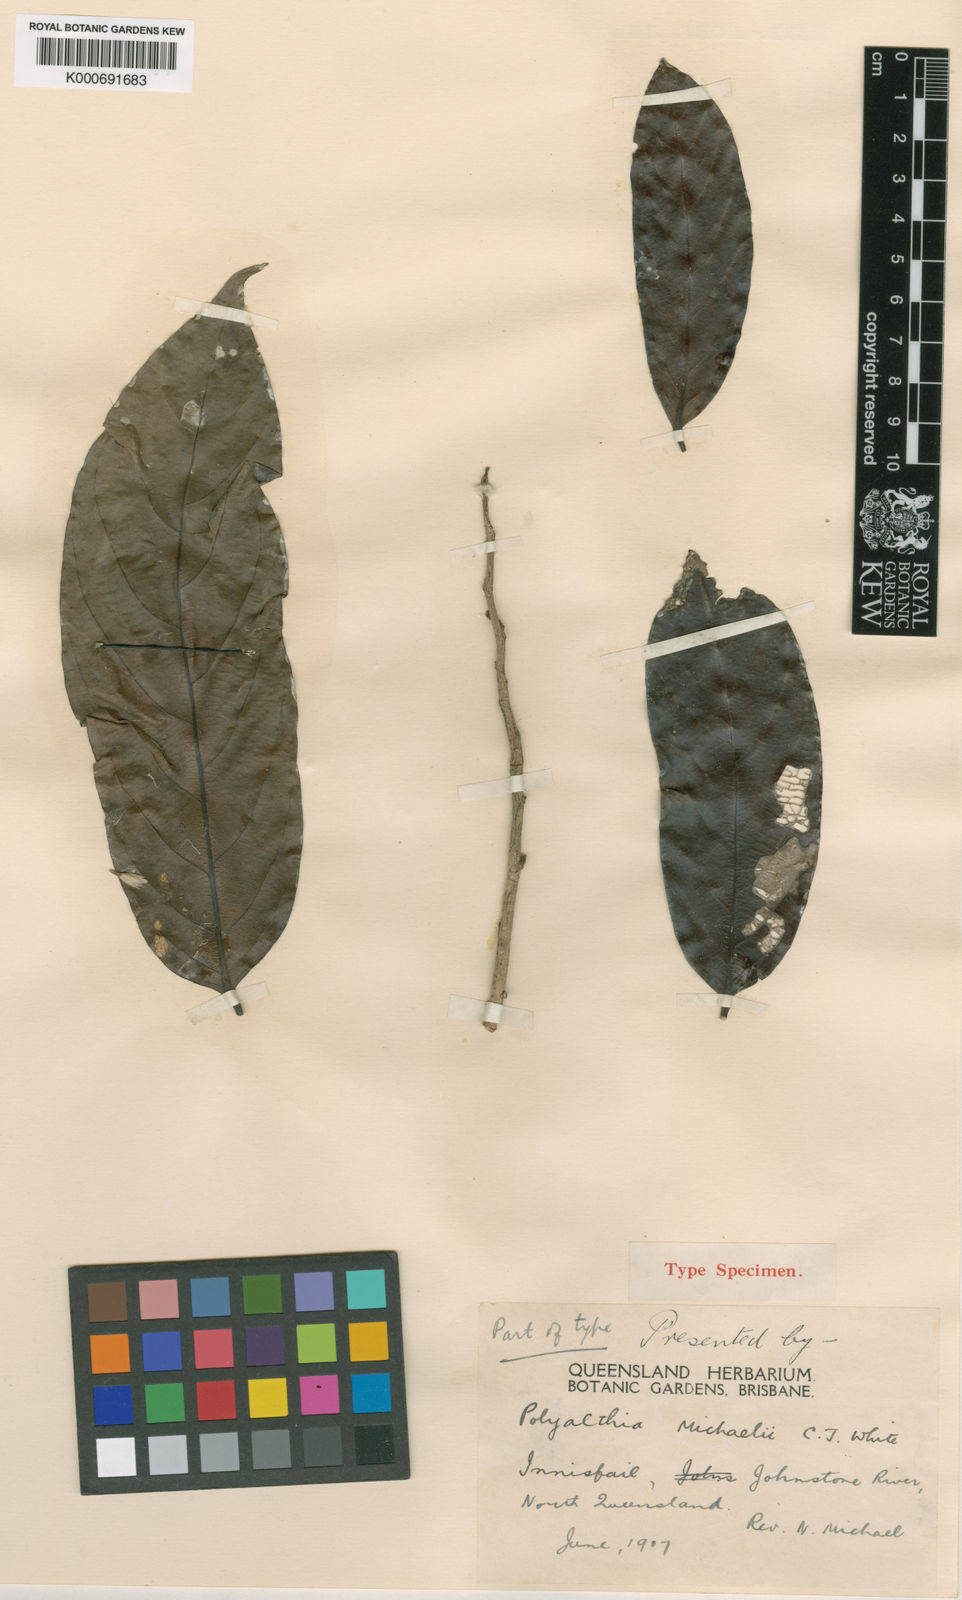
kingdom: Plantae
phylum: Tracheophyta
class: Magnoliopsida
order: Magnoliales
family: Annonaceae
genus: Polyalthia
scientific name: Polyalthia michaelii
